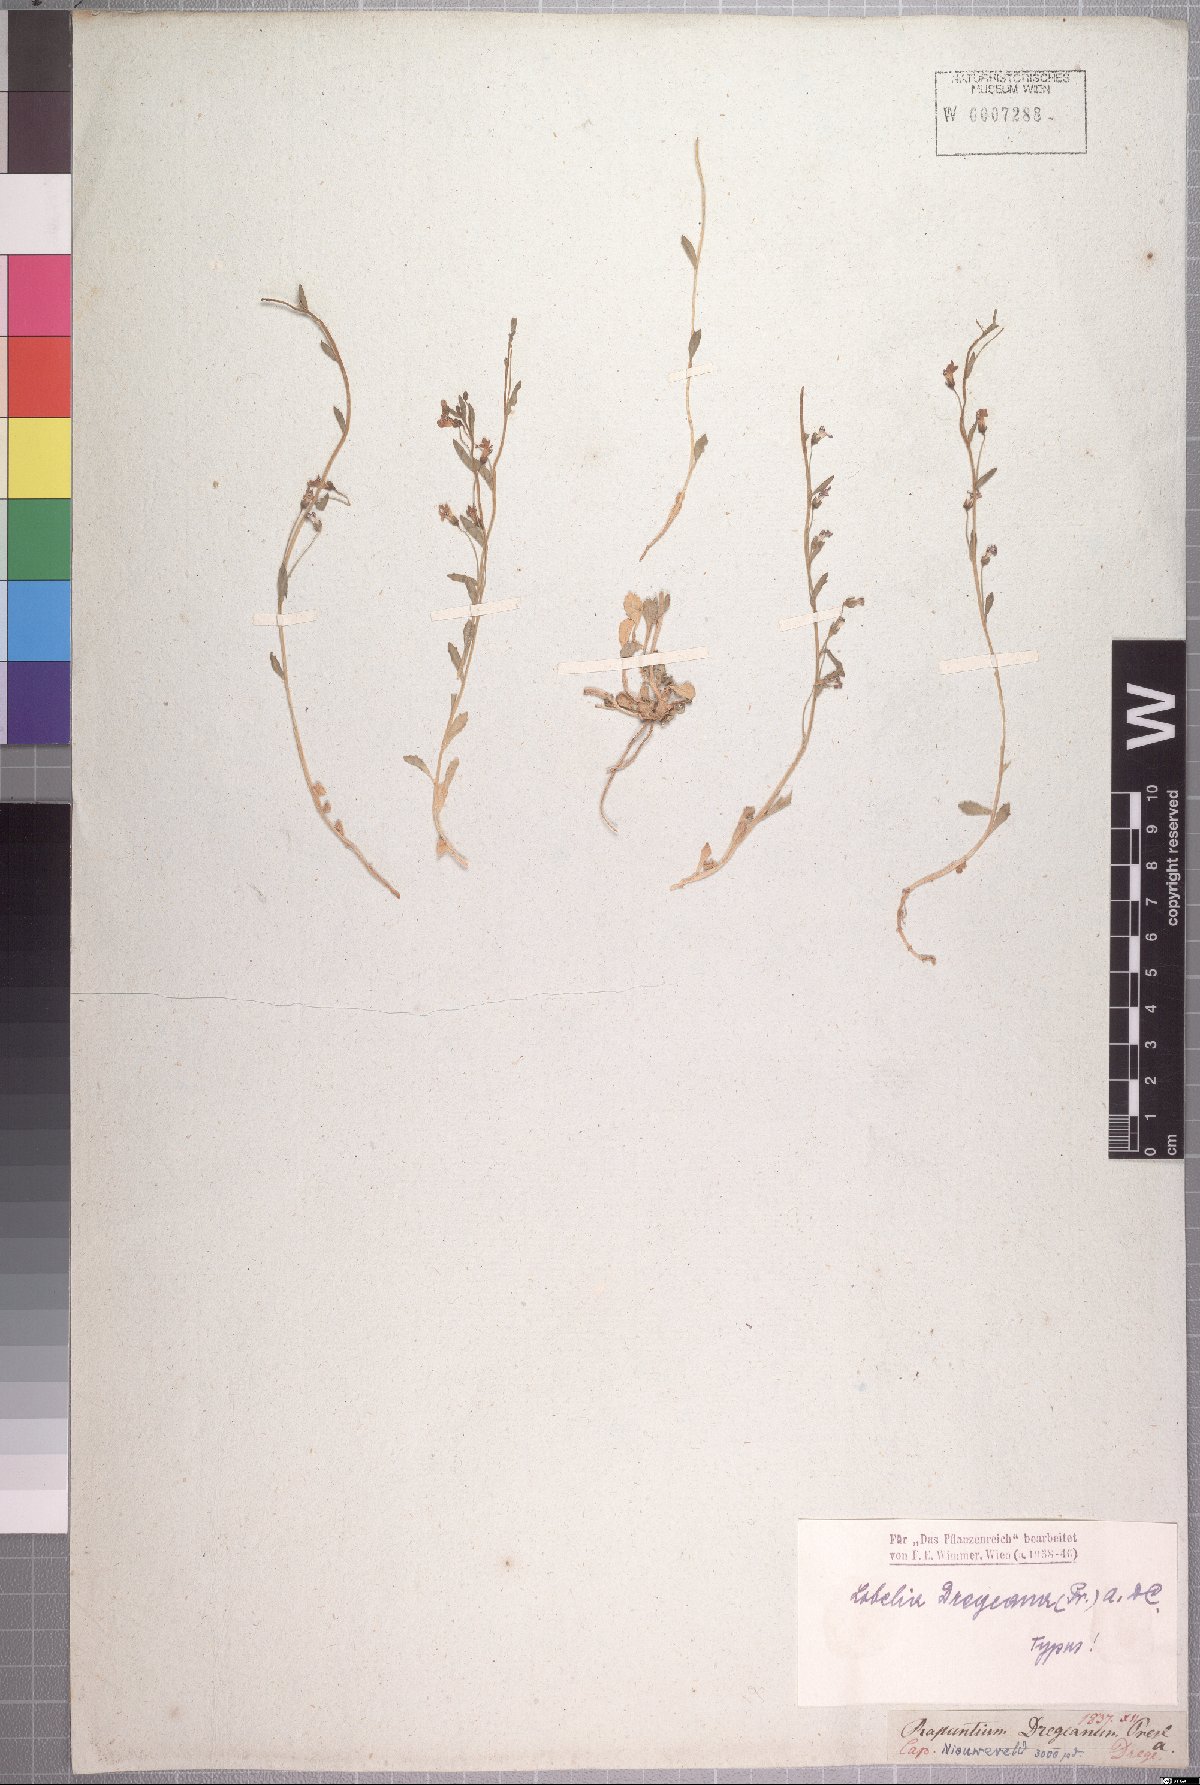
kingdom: Plantae
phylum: Tracheophyta
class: Magnoliopsida
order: Asterales
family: Campanulaceae
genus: Lobelia
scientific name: Lobelia dregeana
